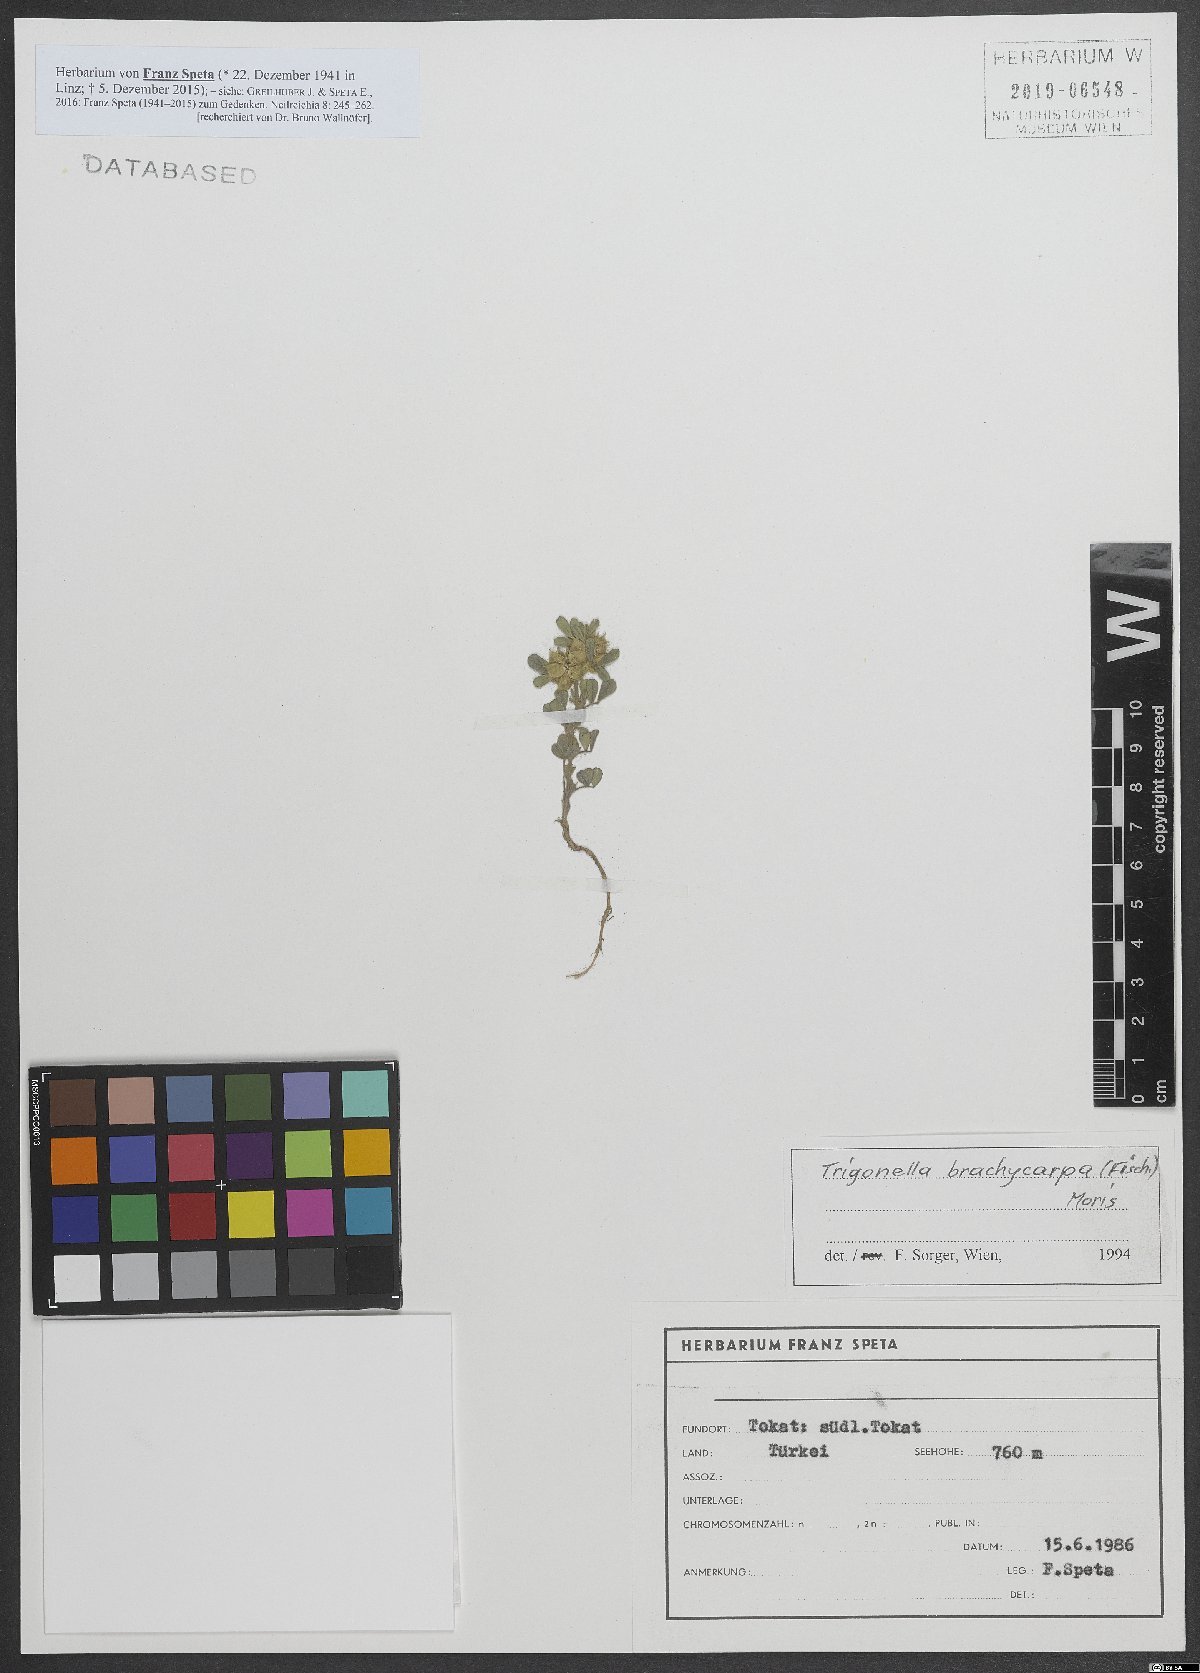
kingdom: Plantae
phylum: Tracheophyta
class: Magnoliopsida
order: Fabales
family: Fabaceae
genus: Medicago
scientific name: Medicago brachycarpa
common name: Short-fruited fenugreek
